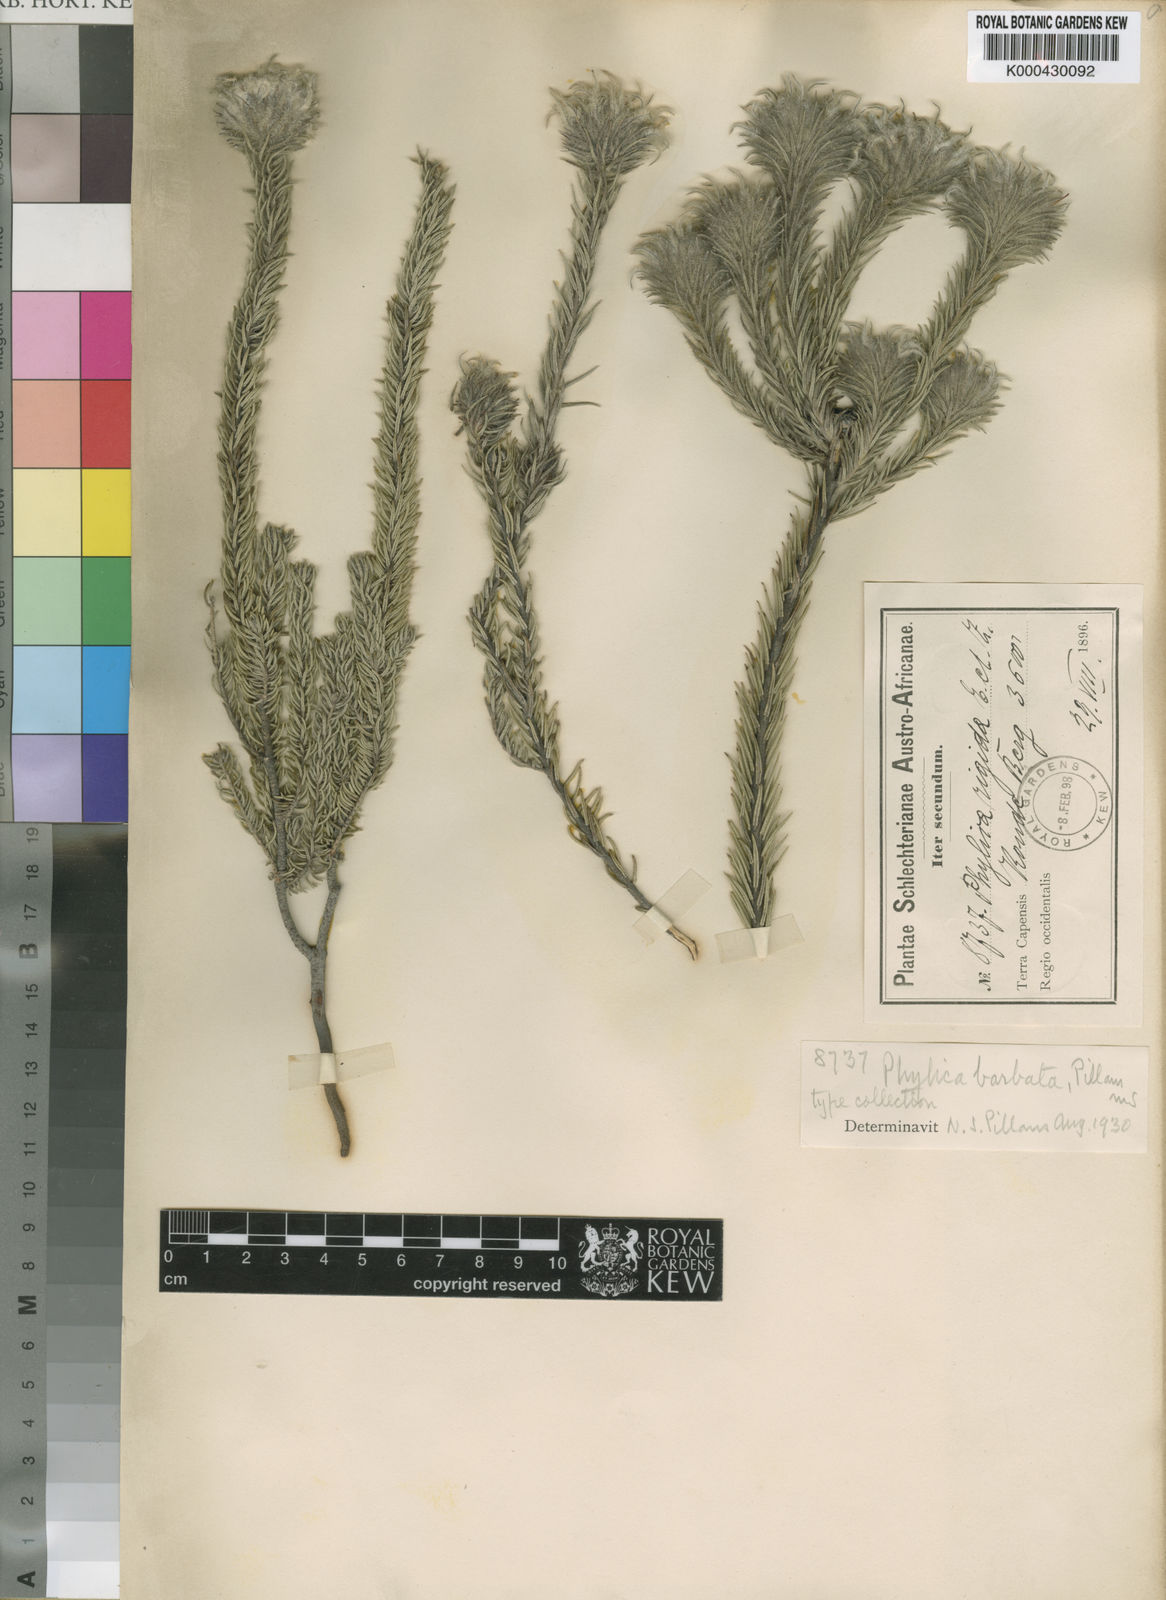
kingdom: Plantae
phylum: Tracheophyta
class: Magnoliopsida
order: Rosales
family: Rhamnaceae
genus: Phylica
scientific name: Phylica barbata
